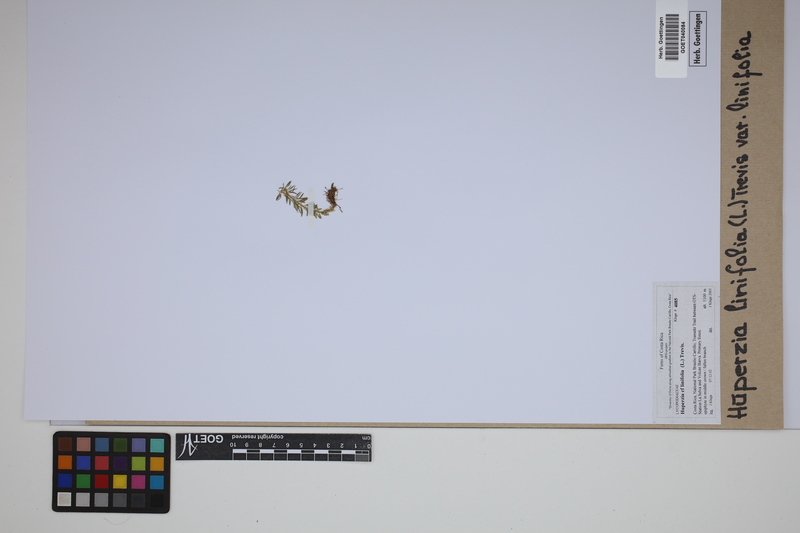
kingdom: Plantae
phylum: Tracheophyta
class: Lycopodiopsida
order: Lycopodiales
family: Lycopodiaceae
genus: Phlegmariurus
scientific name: Phlegmariurus linifolius
